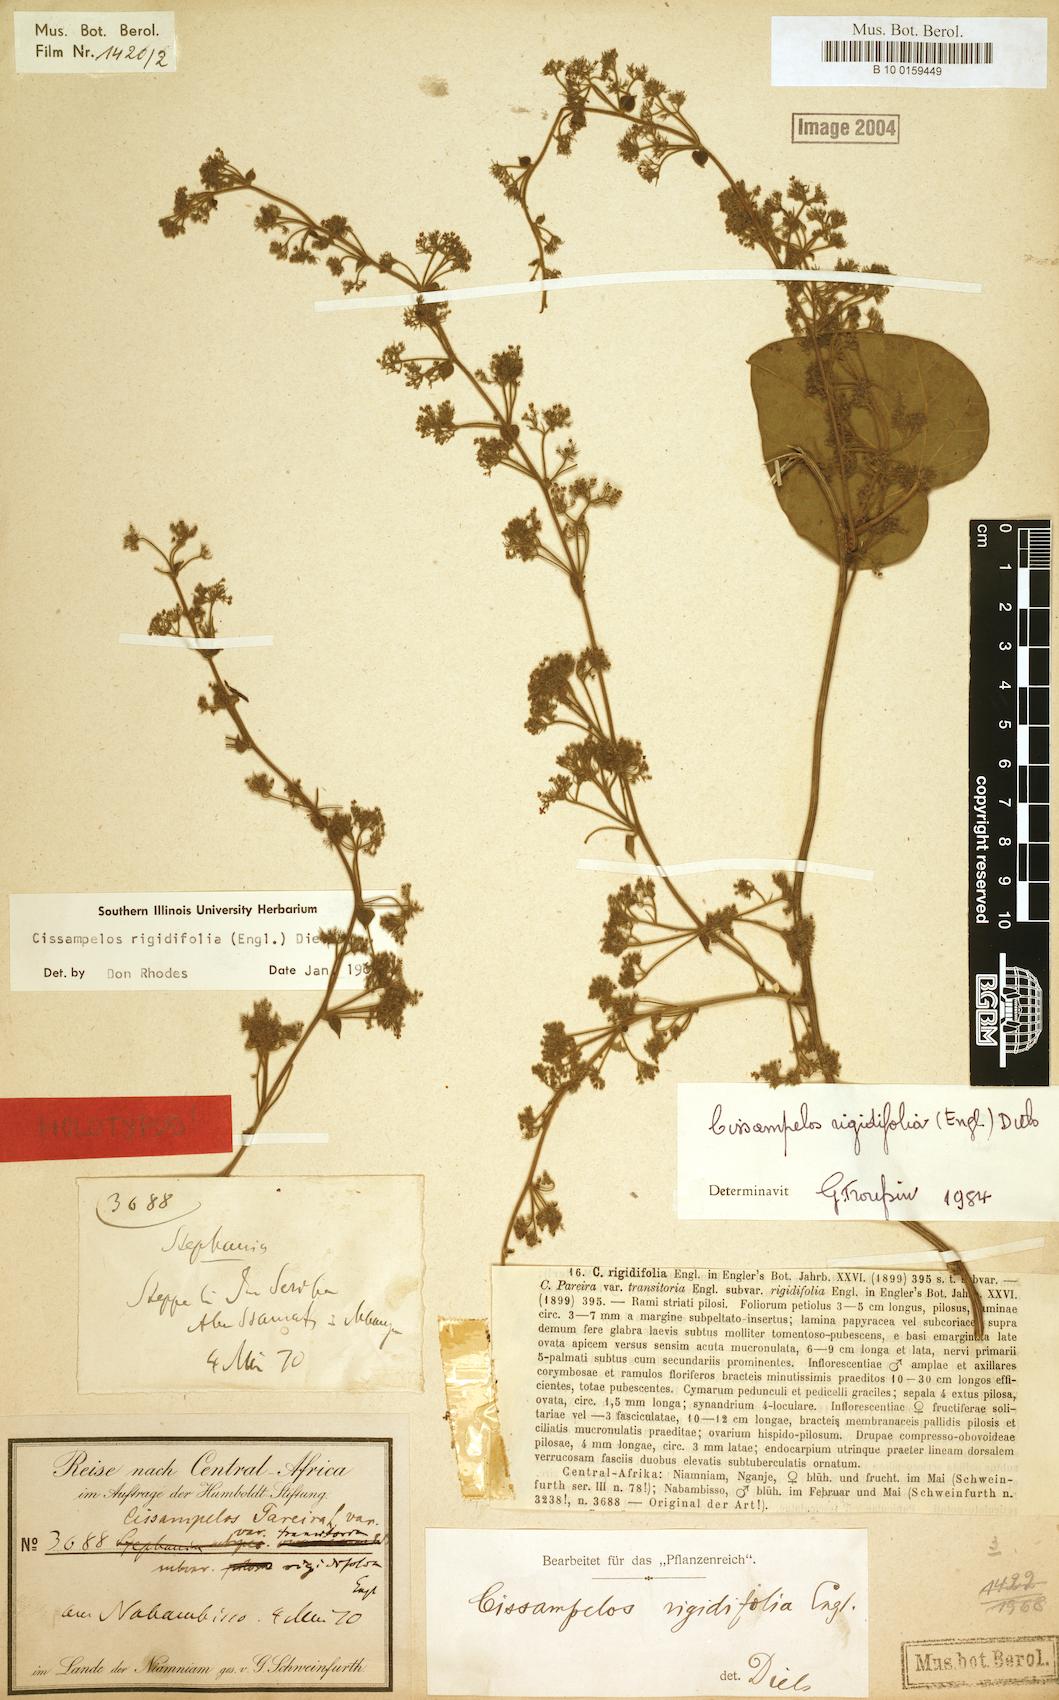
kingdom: Plantae
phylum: Tracheophyta
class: Magnoliopsida
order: Ranunculales
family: Menispermaceae
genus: Cissampelos
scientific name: Cissampelos rigidifolia
